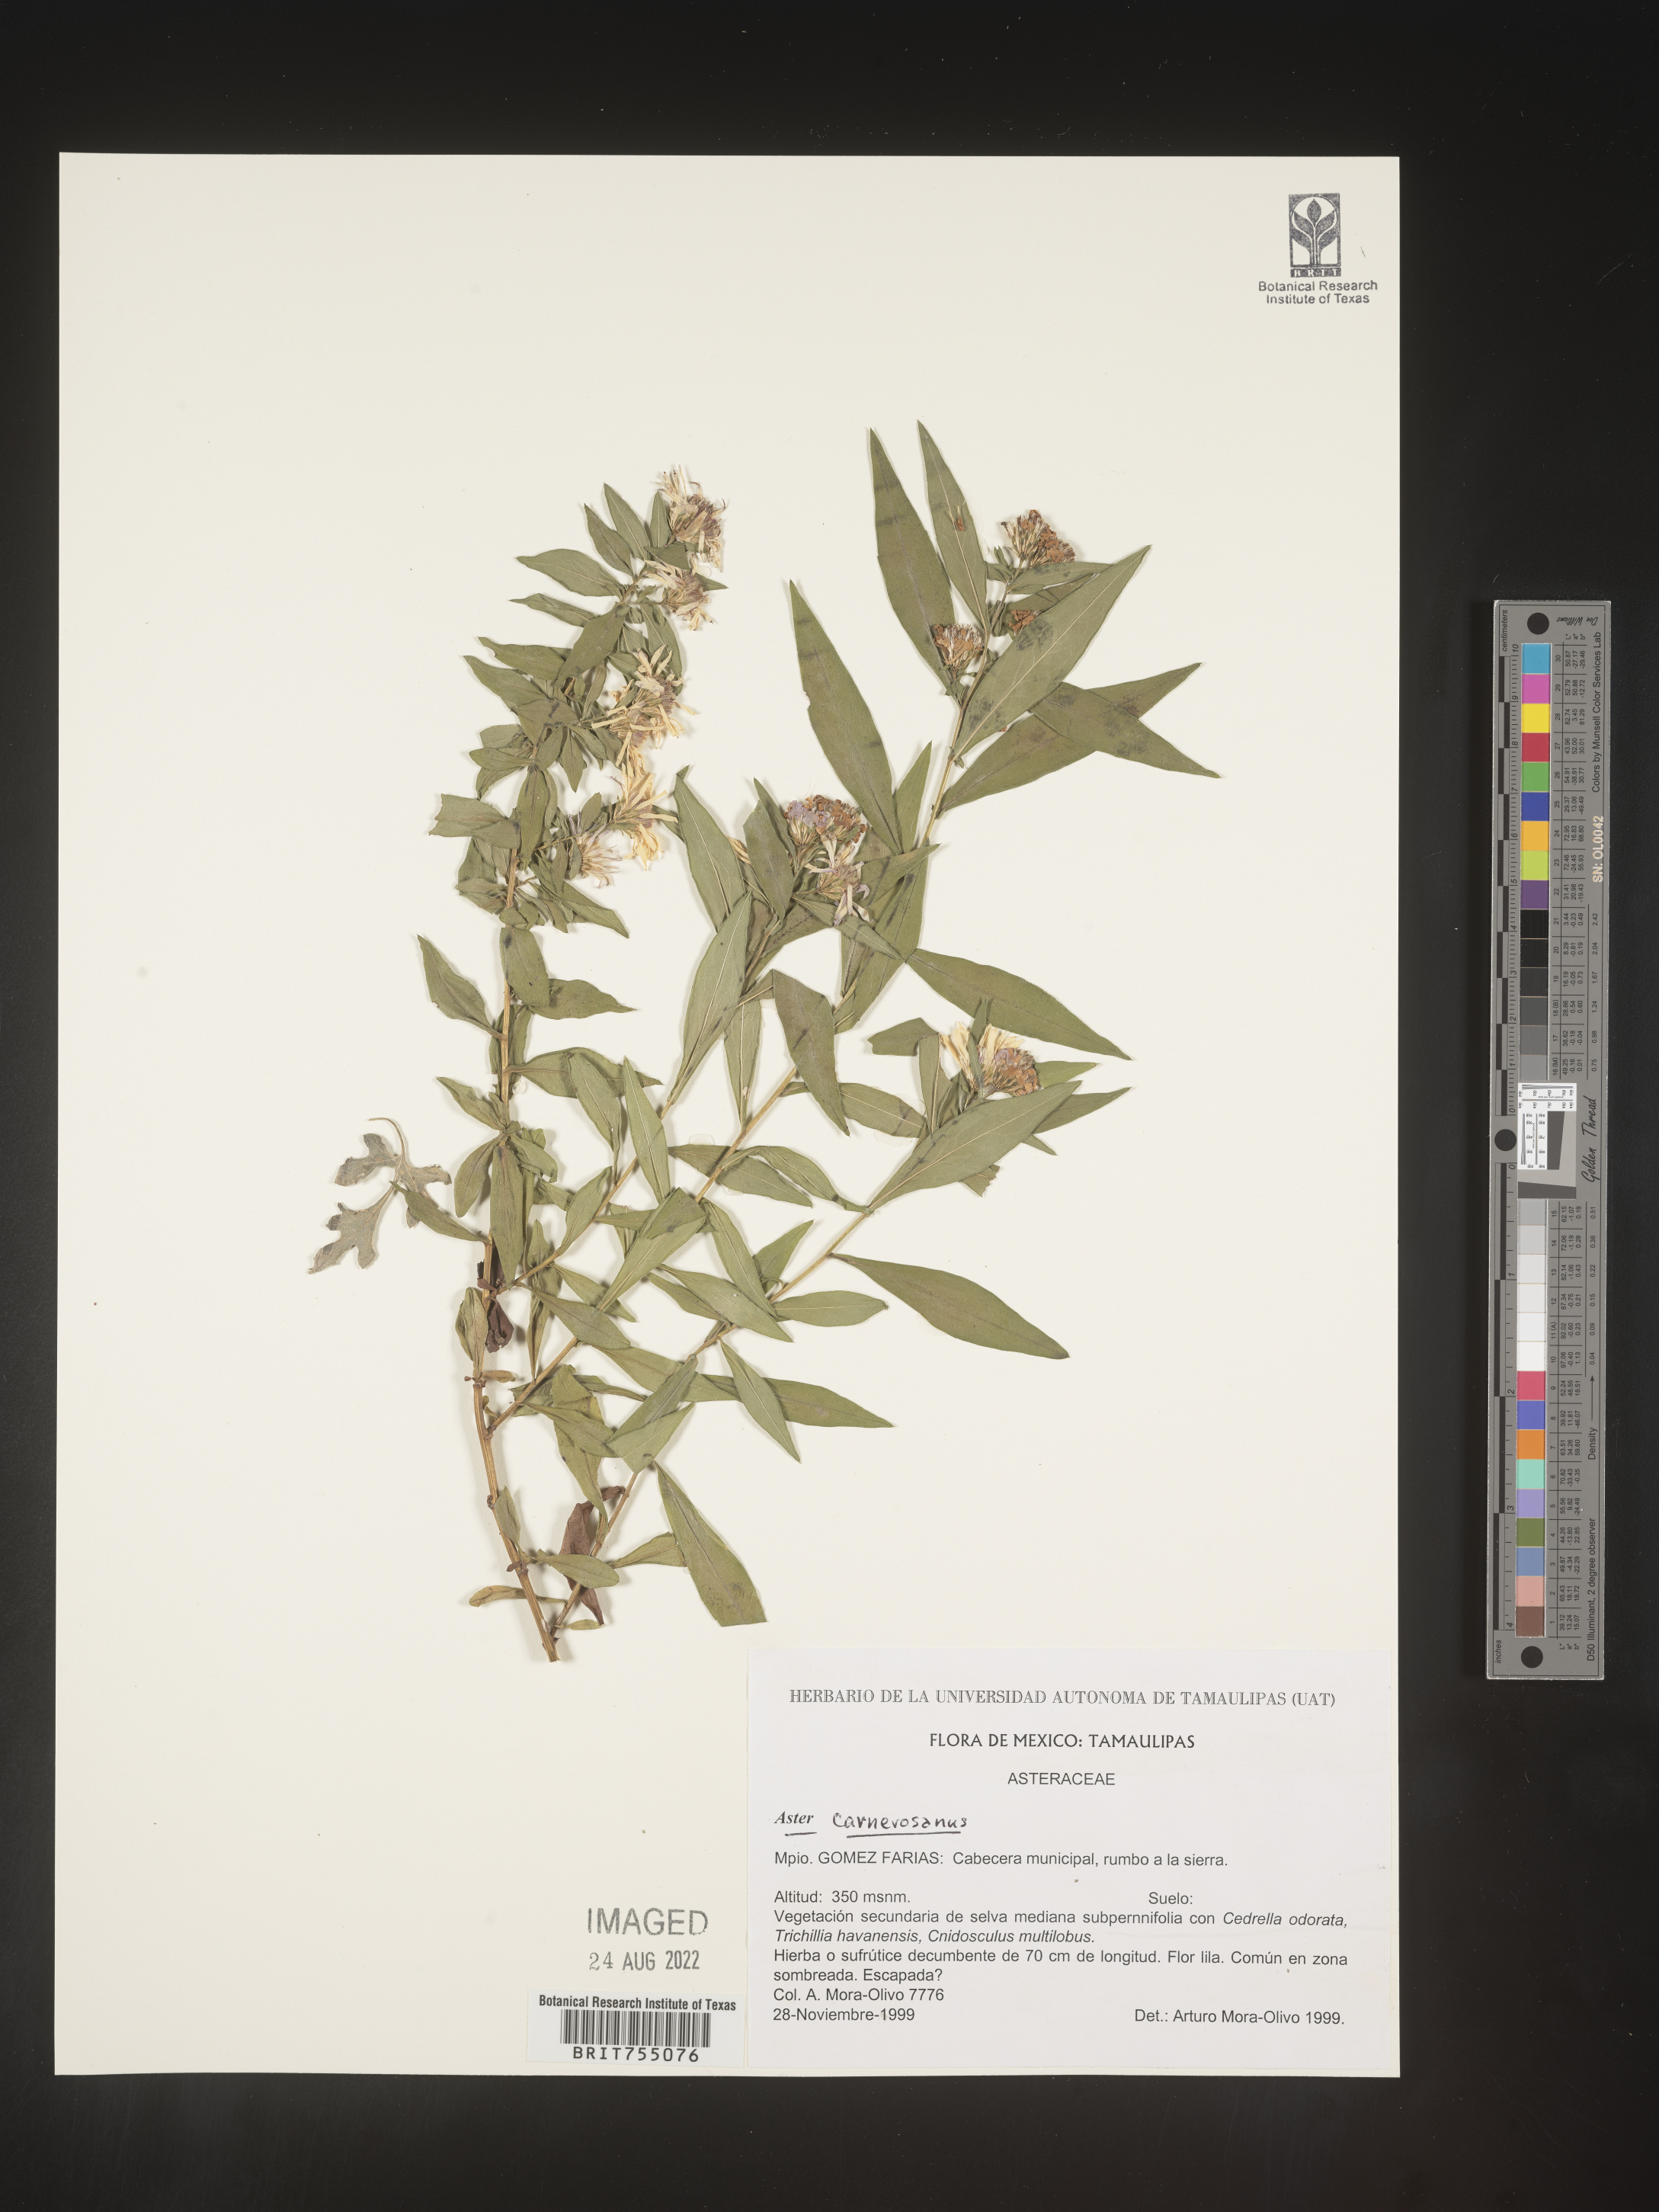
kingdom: Plantae
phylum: Tracheophyta
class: Magnoliopsida
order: Asterales
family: Asteraceae
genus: Symphyotrichum
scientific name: Symphyotrichum carnerosanum
